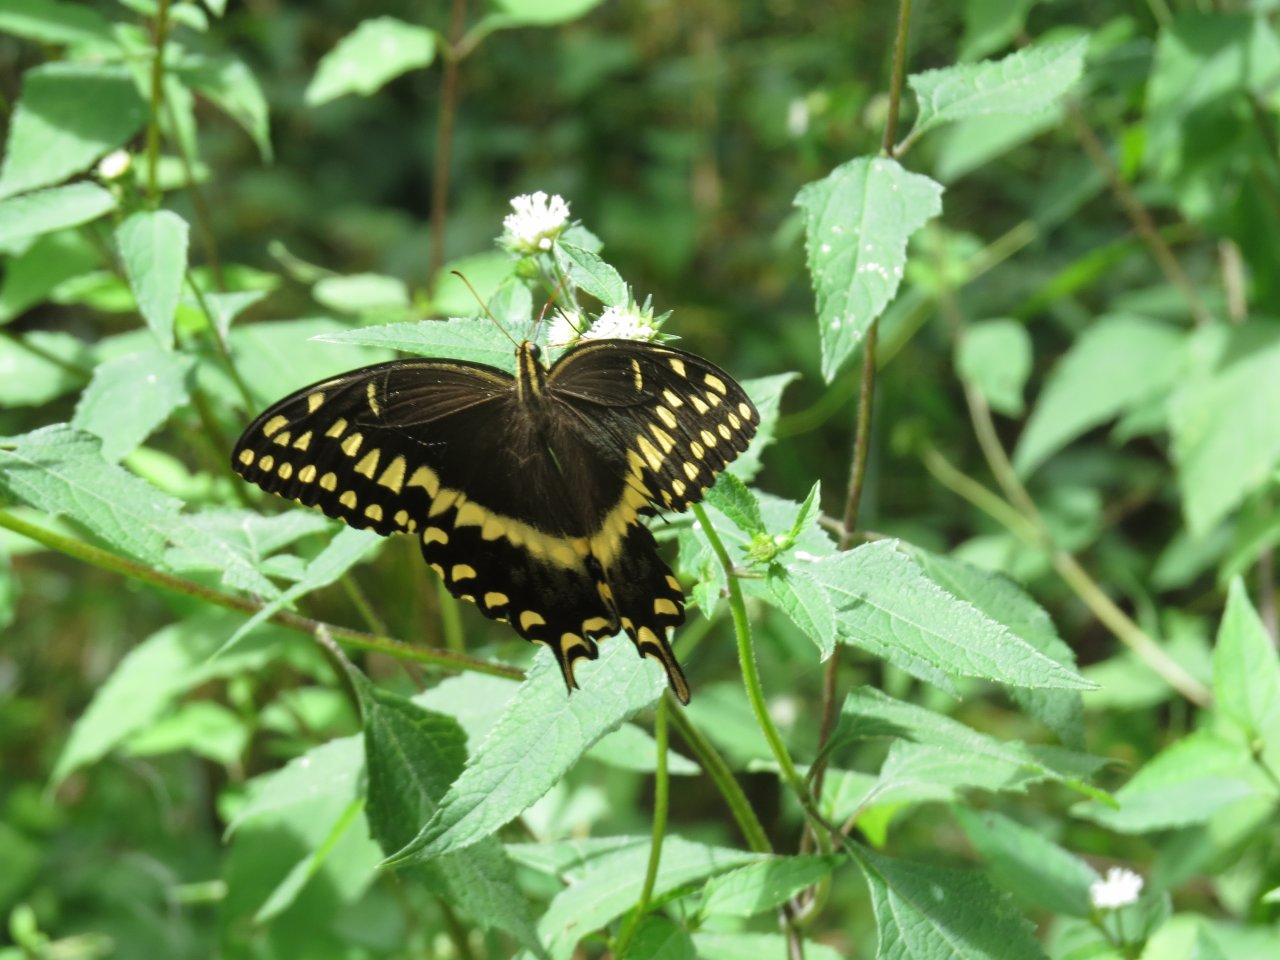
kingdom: Animalia
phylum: Arthropoda
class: Insecta
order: Lepidoptera
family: Papilionidae
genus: Pterourus
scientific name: Pterourus palamedes
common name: Palamedes Swallowtail
